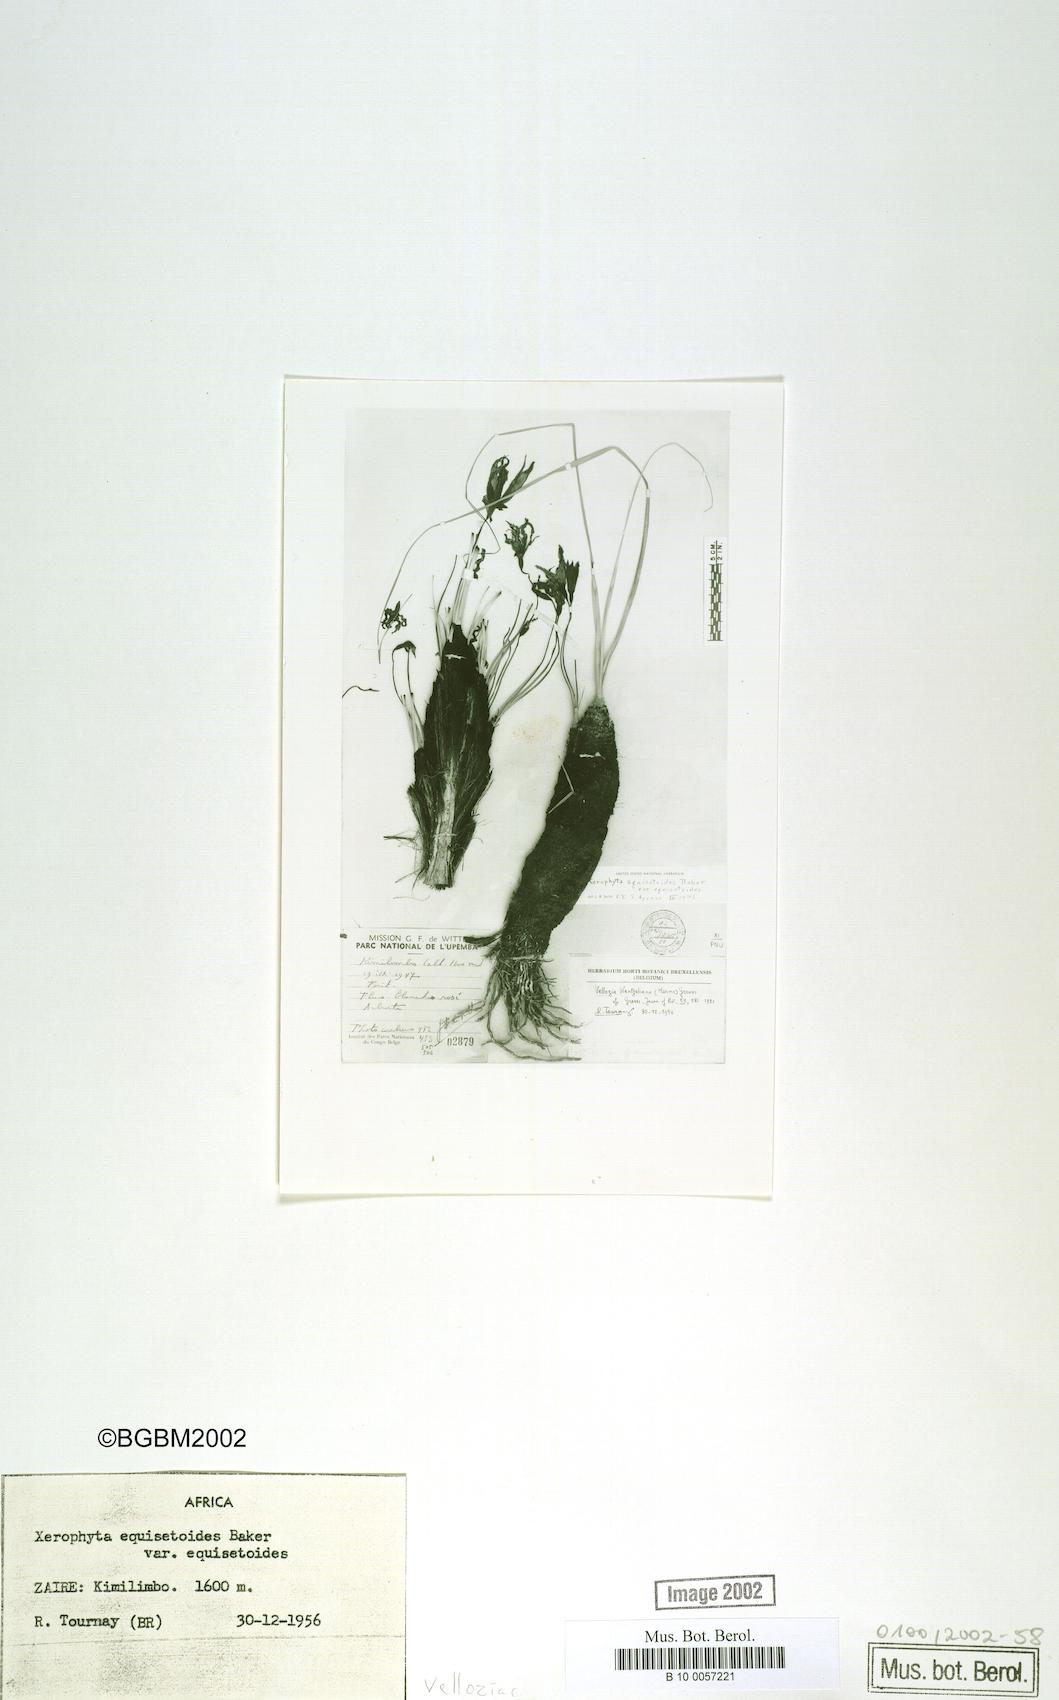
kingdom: Plantae
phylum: Tracheophyta
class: Liliopsida
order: Pandanales
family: Velloziaceae
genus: Xerophyta
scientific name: Xerophyta equisetoides
